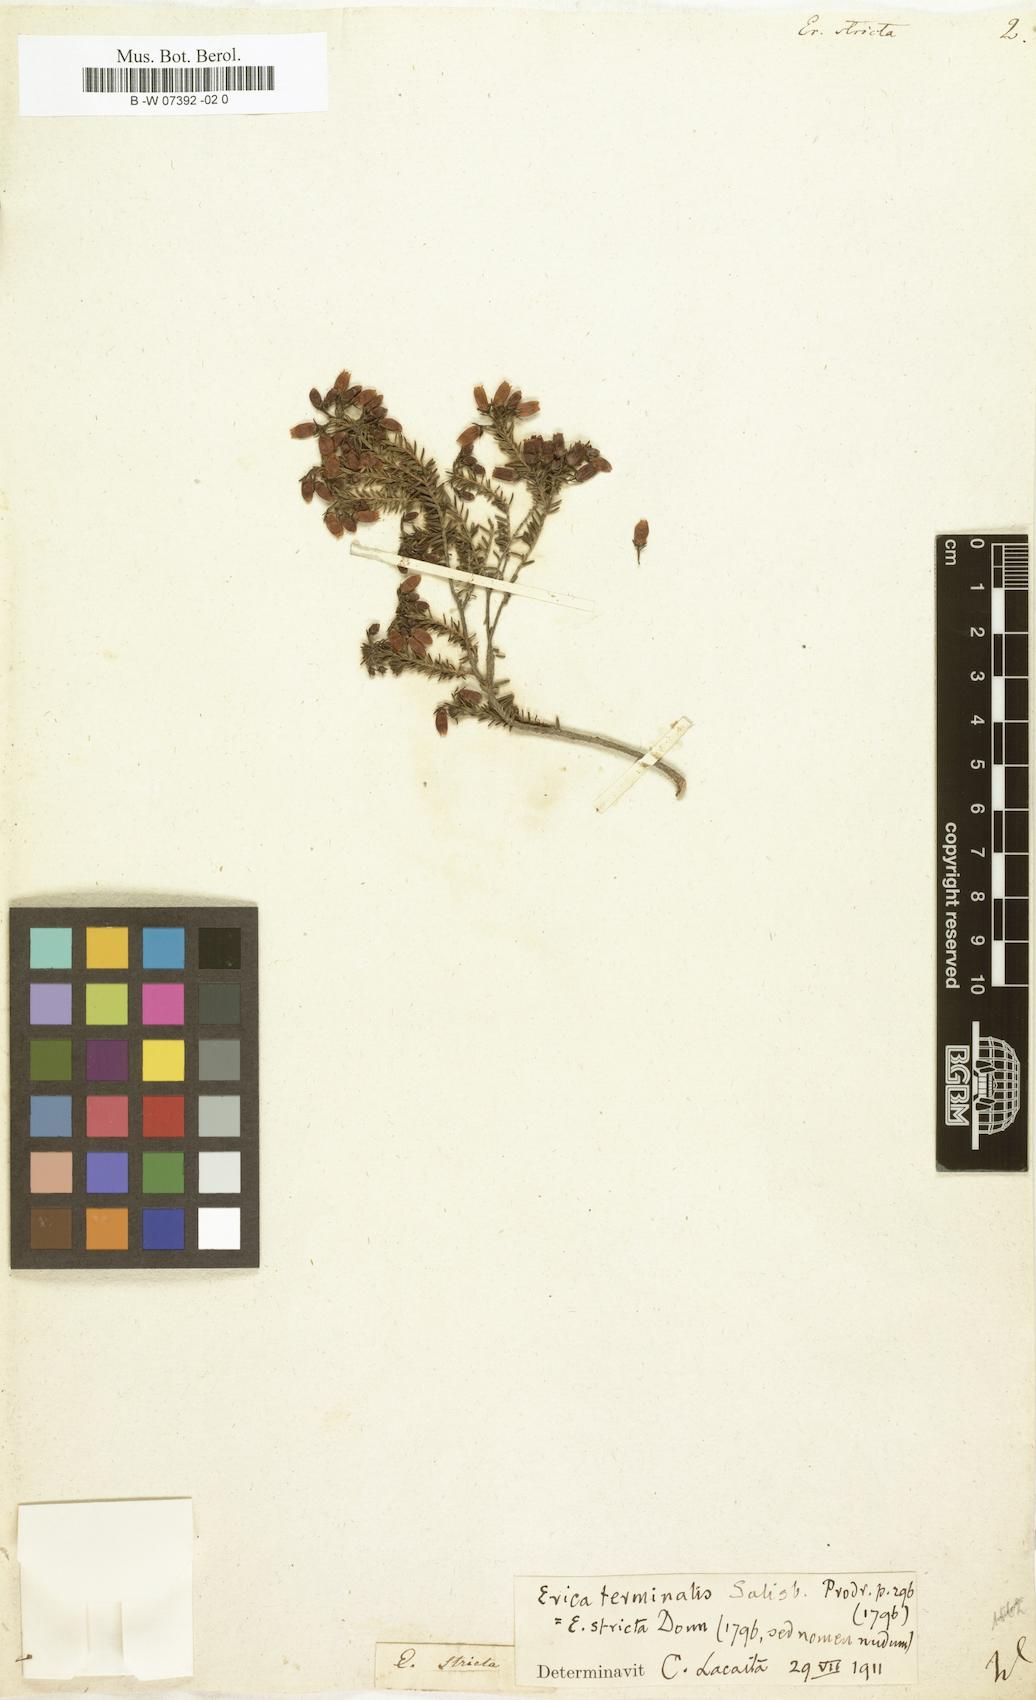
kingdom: Plantae
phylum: Tracheophyta
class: Magnoliopsida
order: Ericales
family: Ericaceae
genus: Erica
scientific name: Erica terminalis
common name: Corsican heath
